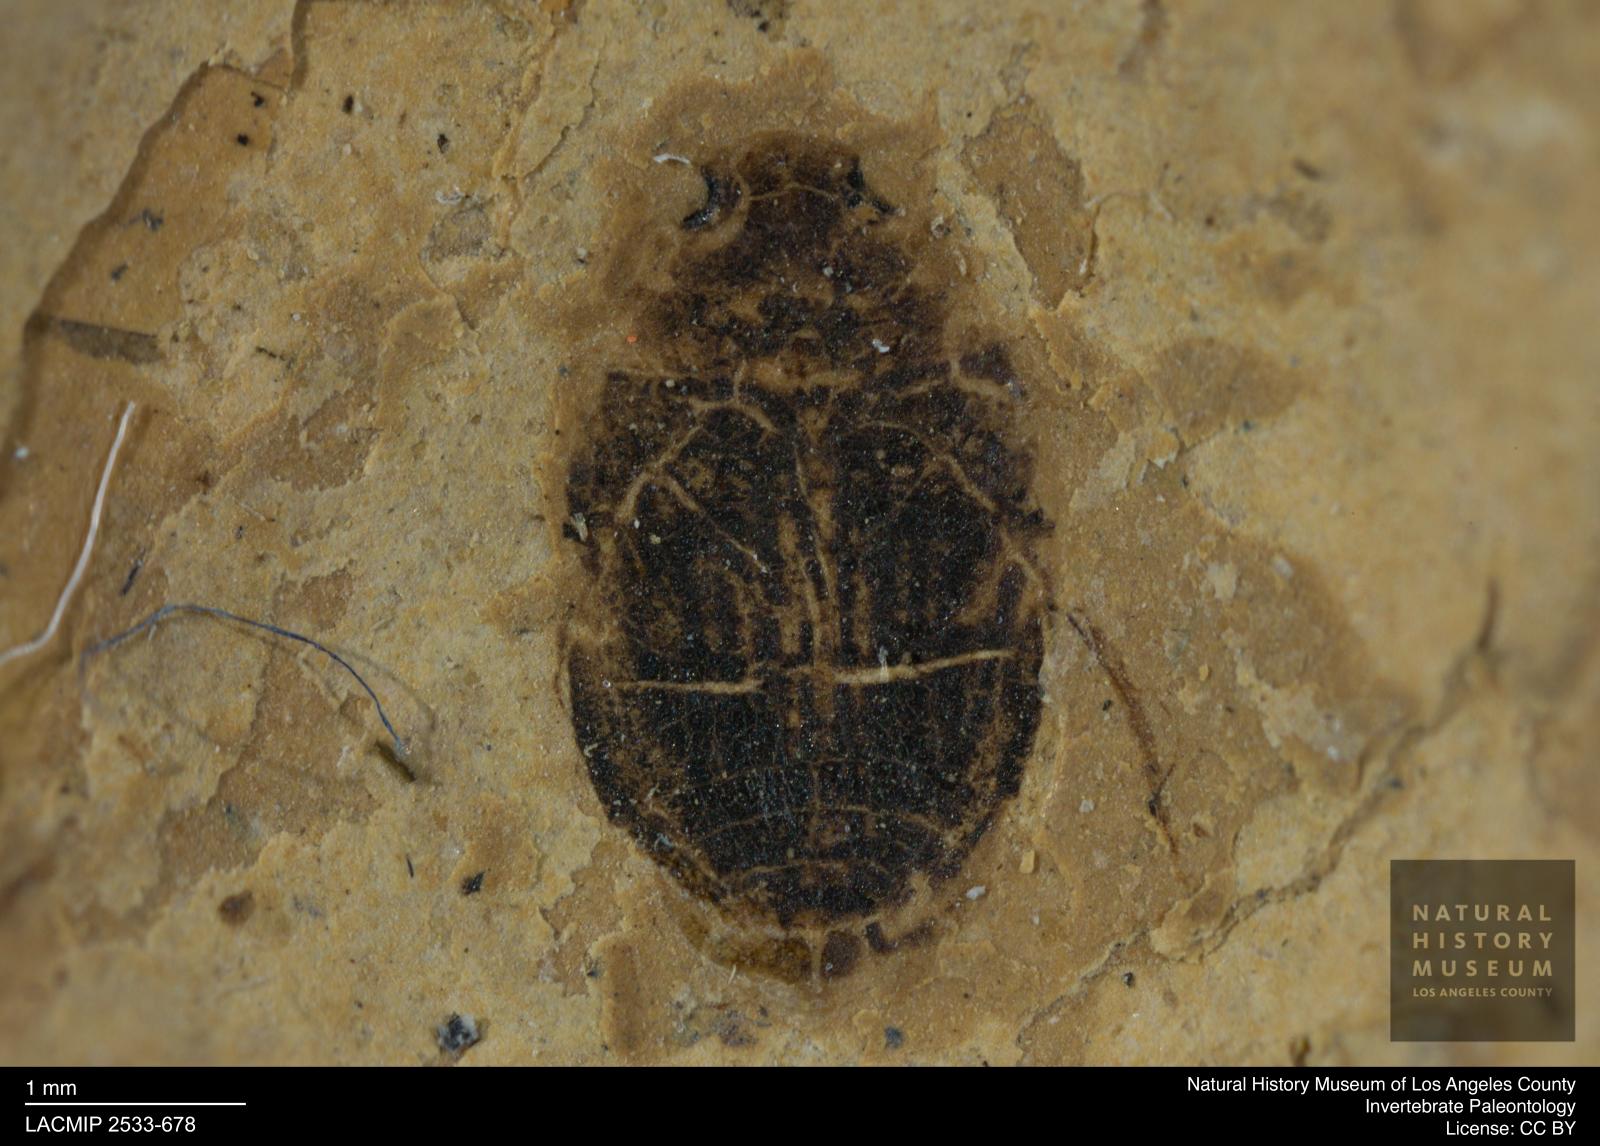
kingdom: Animalia
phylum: Arthropoda
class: Insecta
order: Coleoptera
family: Dytiscidae
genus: Oreodytes
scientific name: Oreodytes cryptolineatus
